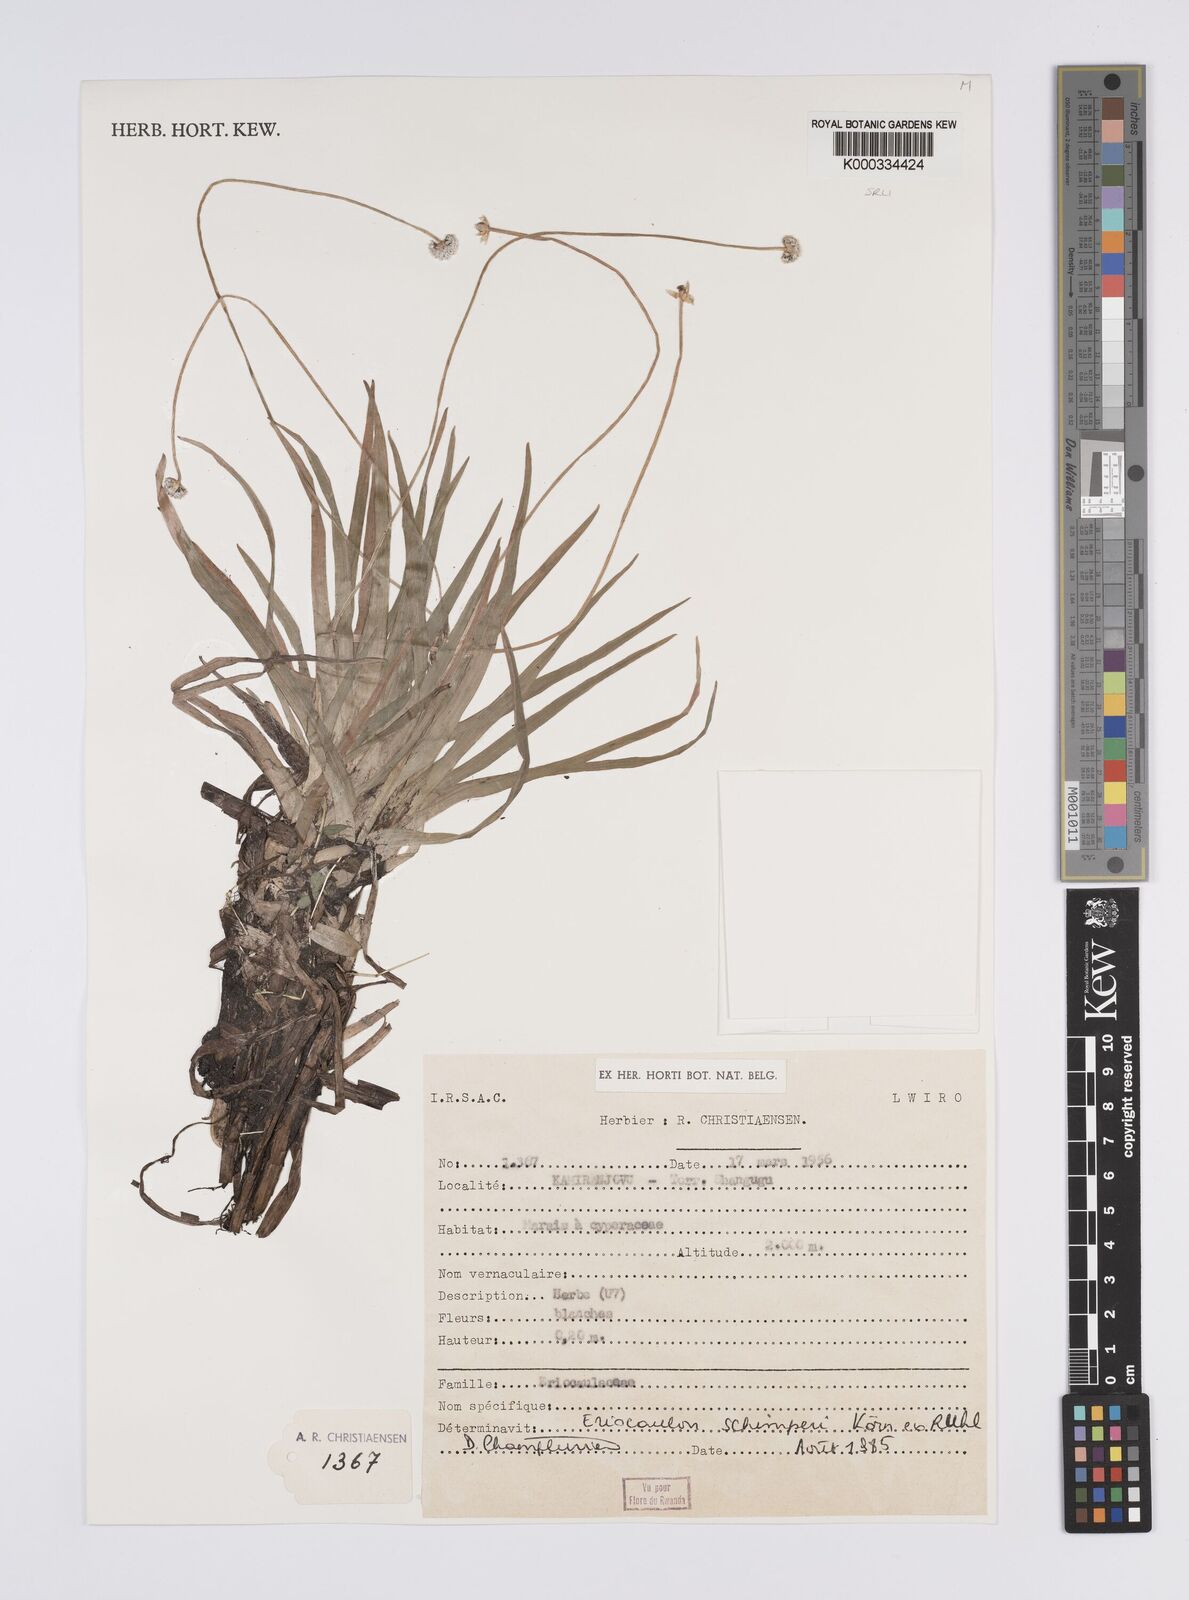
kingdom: Plantae
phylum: Tracheophyta
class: Liliopsida
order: Poales
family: Eriocaulaceae
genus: Eriocaulon
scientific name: Eriocaulon
